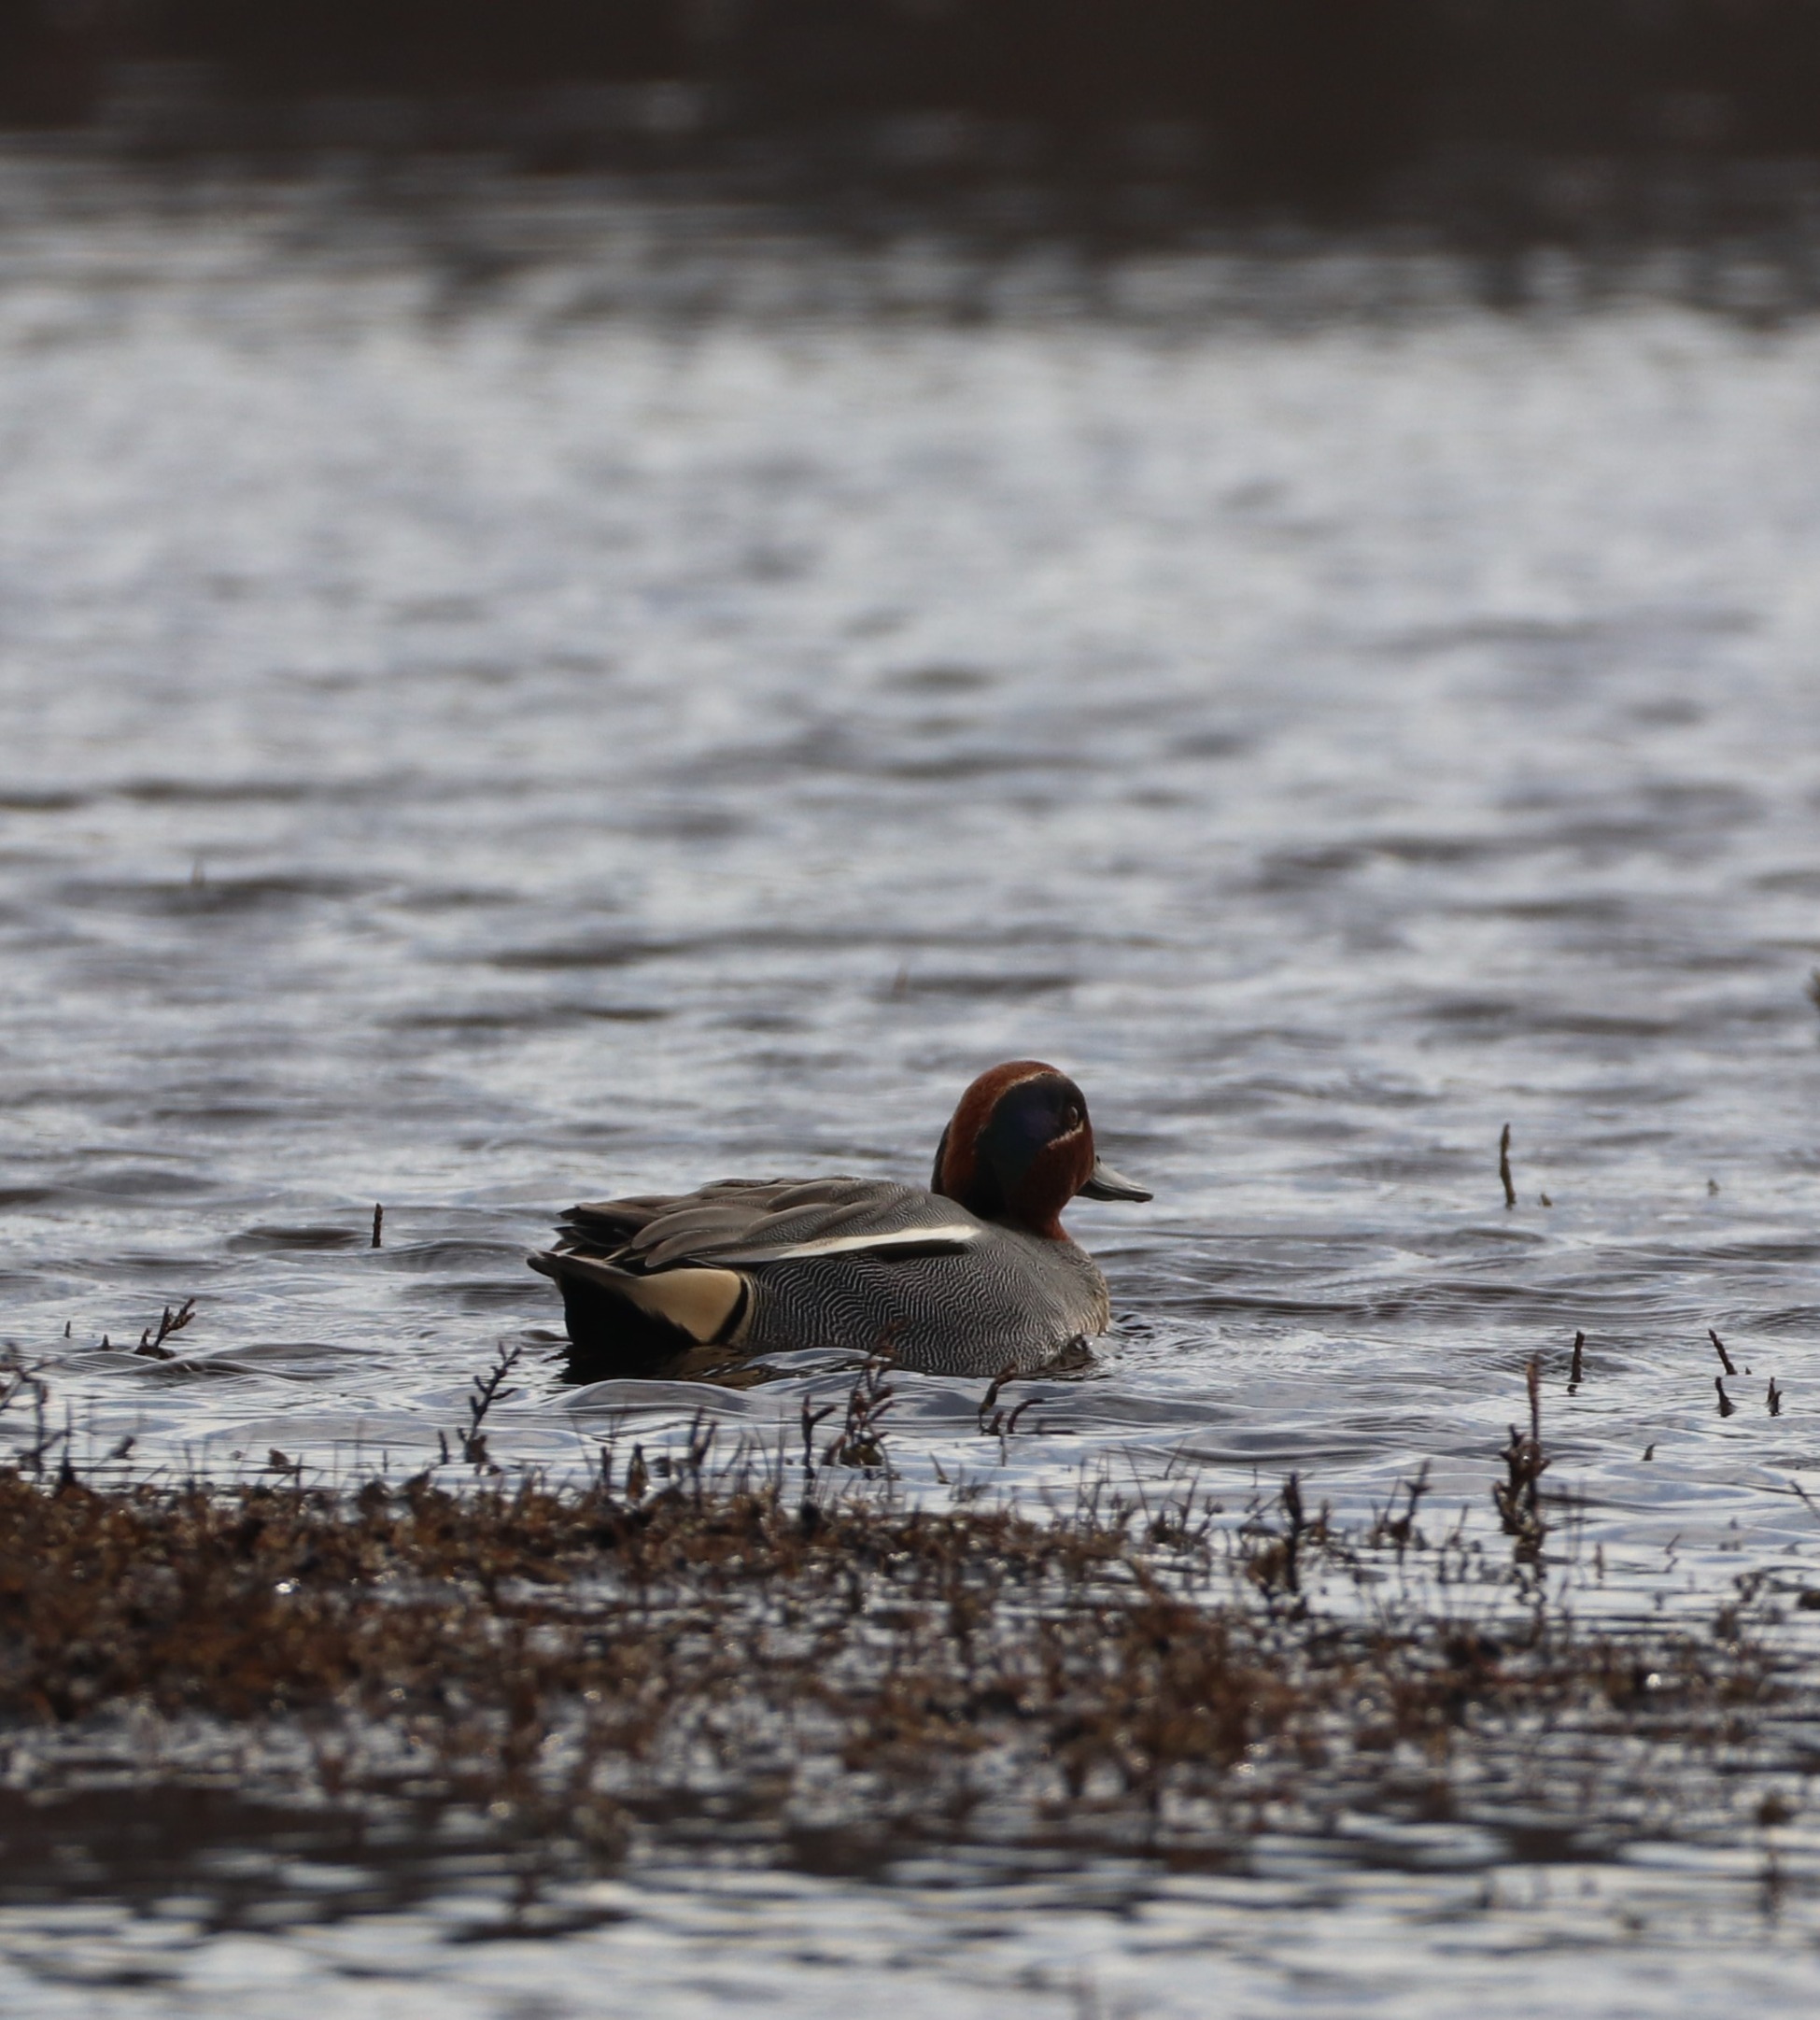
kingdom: Animalia
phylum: Chordata
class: Aves
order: Anseriformes
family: Anatidae
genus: Anas
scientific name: Anas crecca
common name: Krikand
